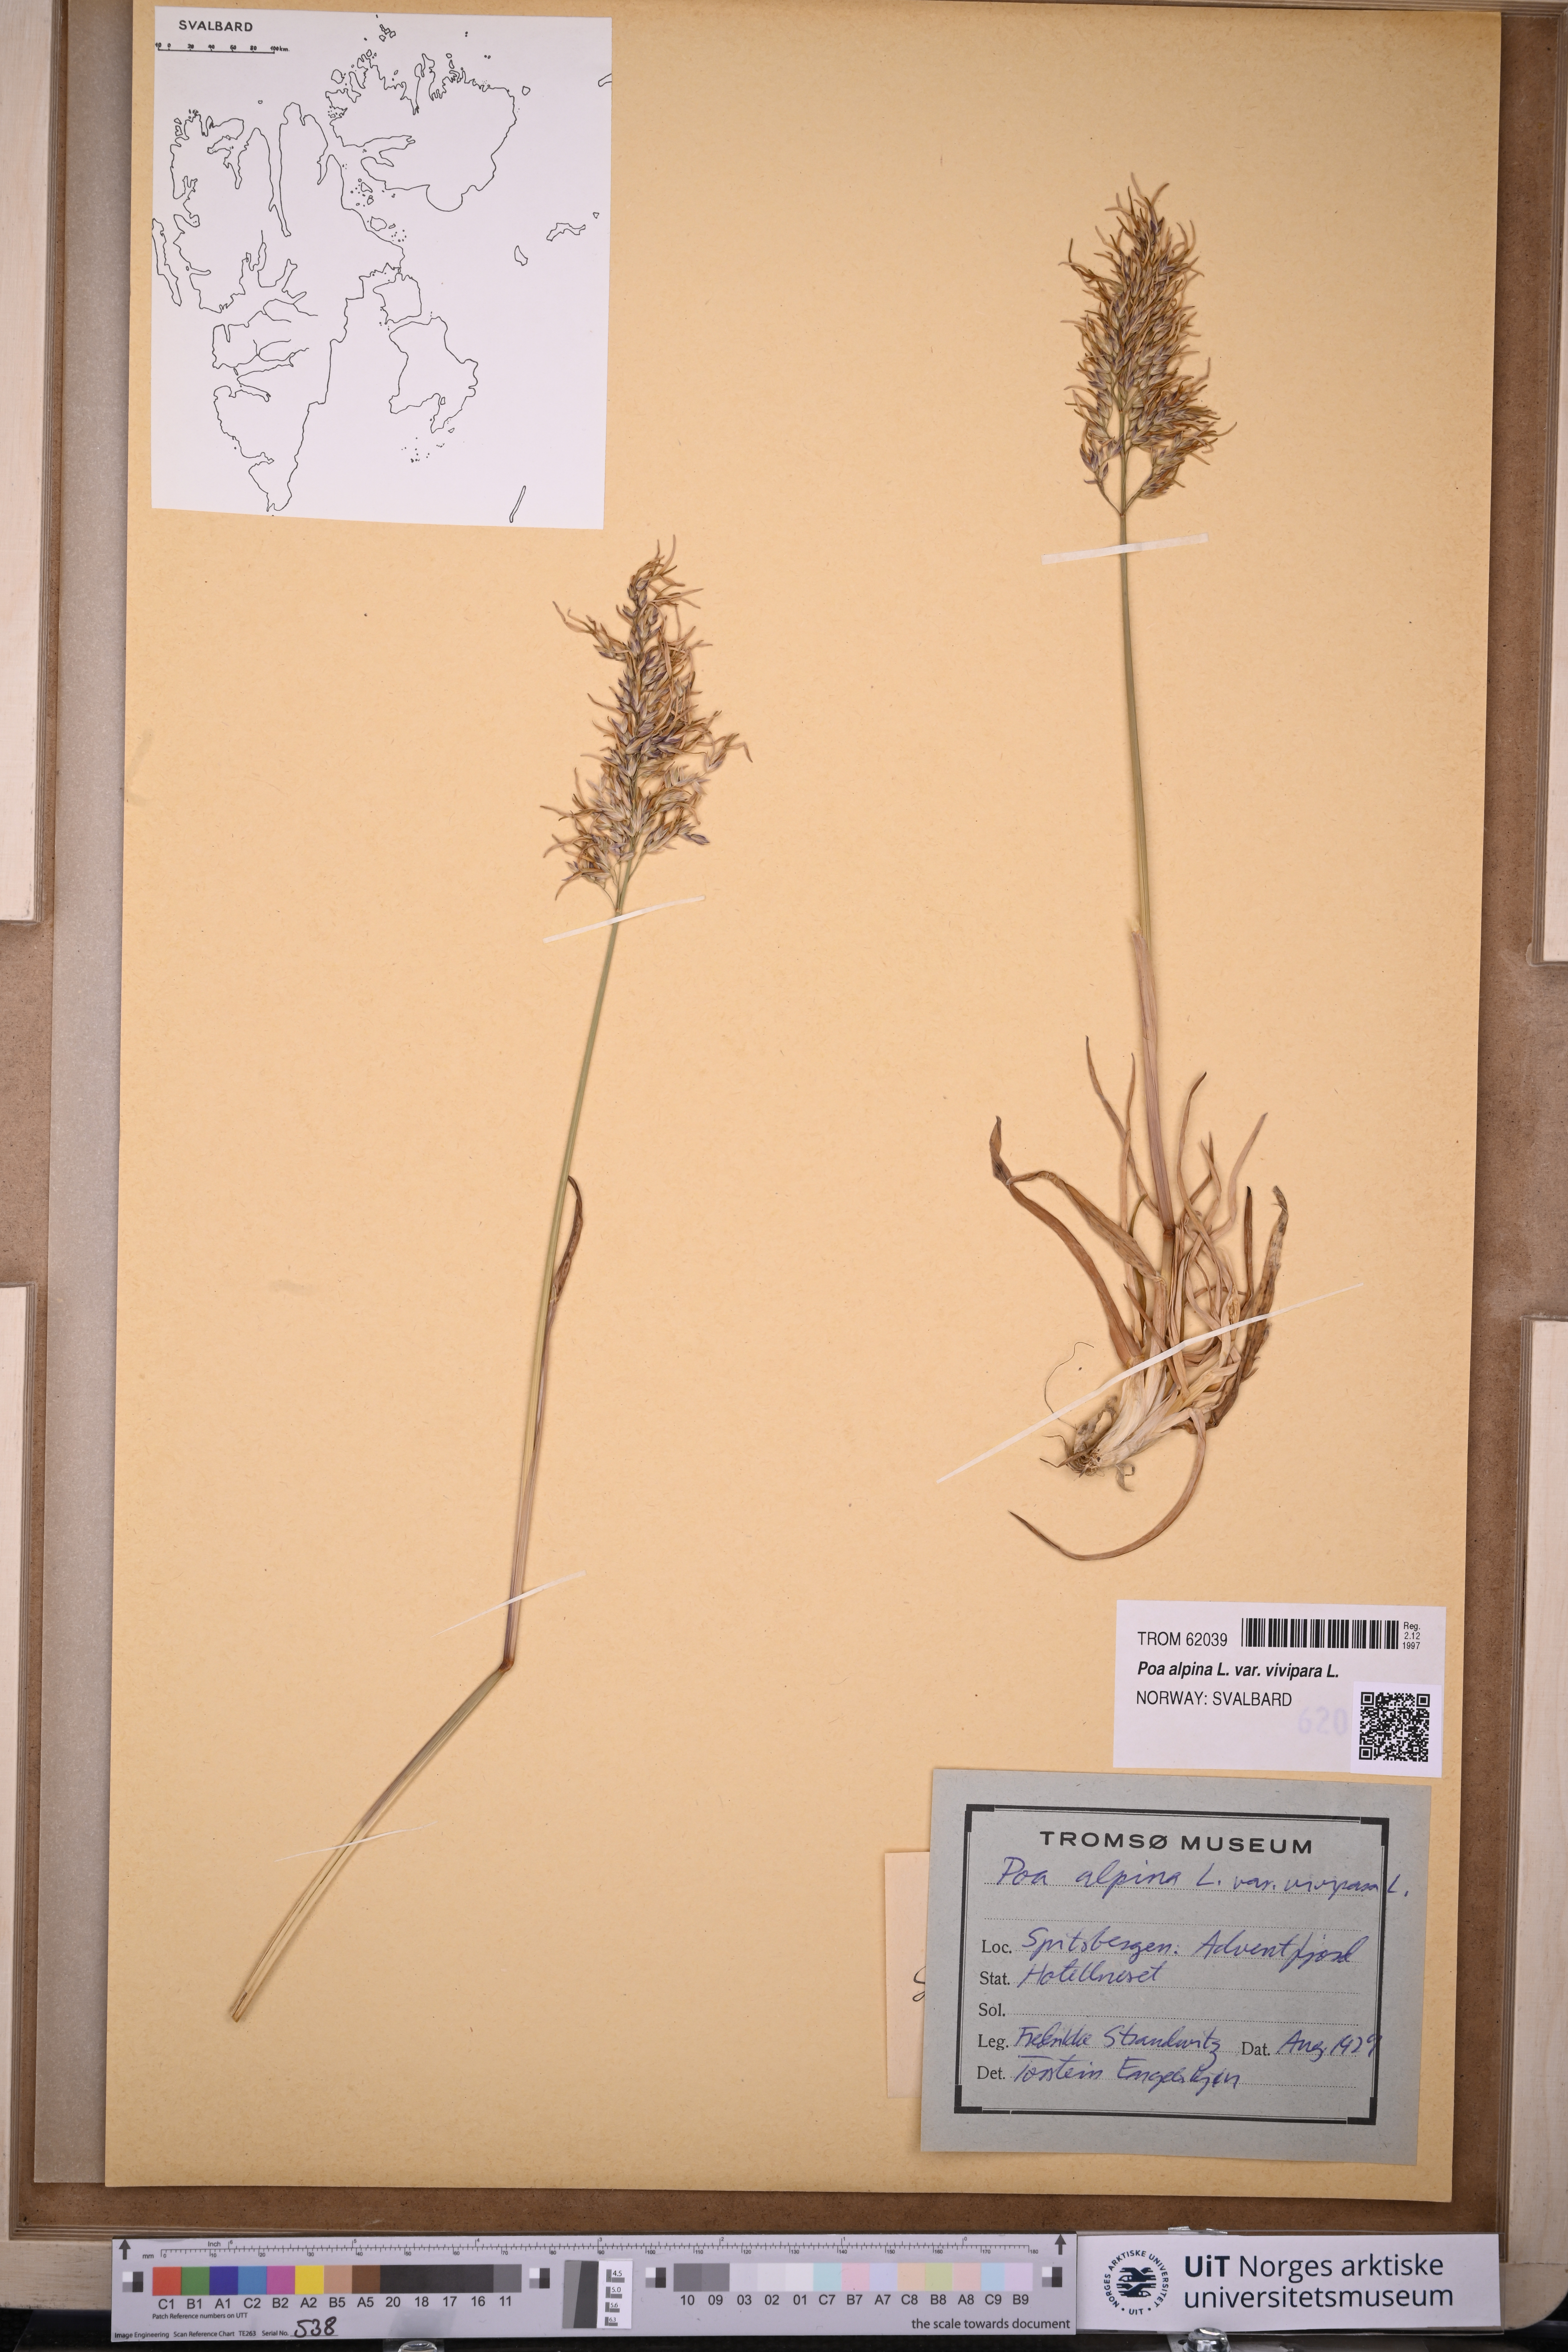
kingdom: Plantae
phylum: Tracheophyta
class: Liliopsida
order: Poales
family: Poaceae
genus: Poa
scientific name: Poa alpina
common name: Alpine bluegrass
